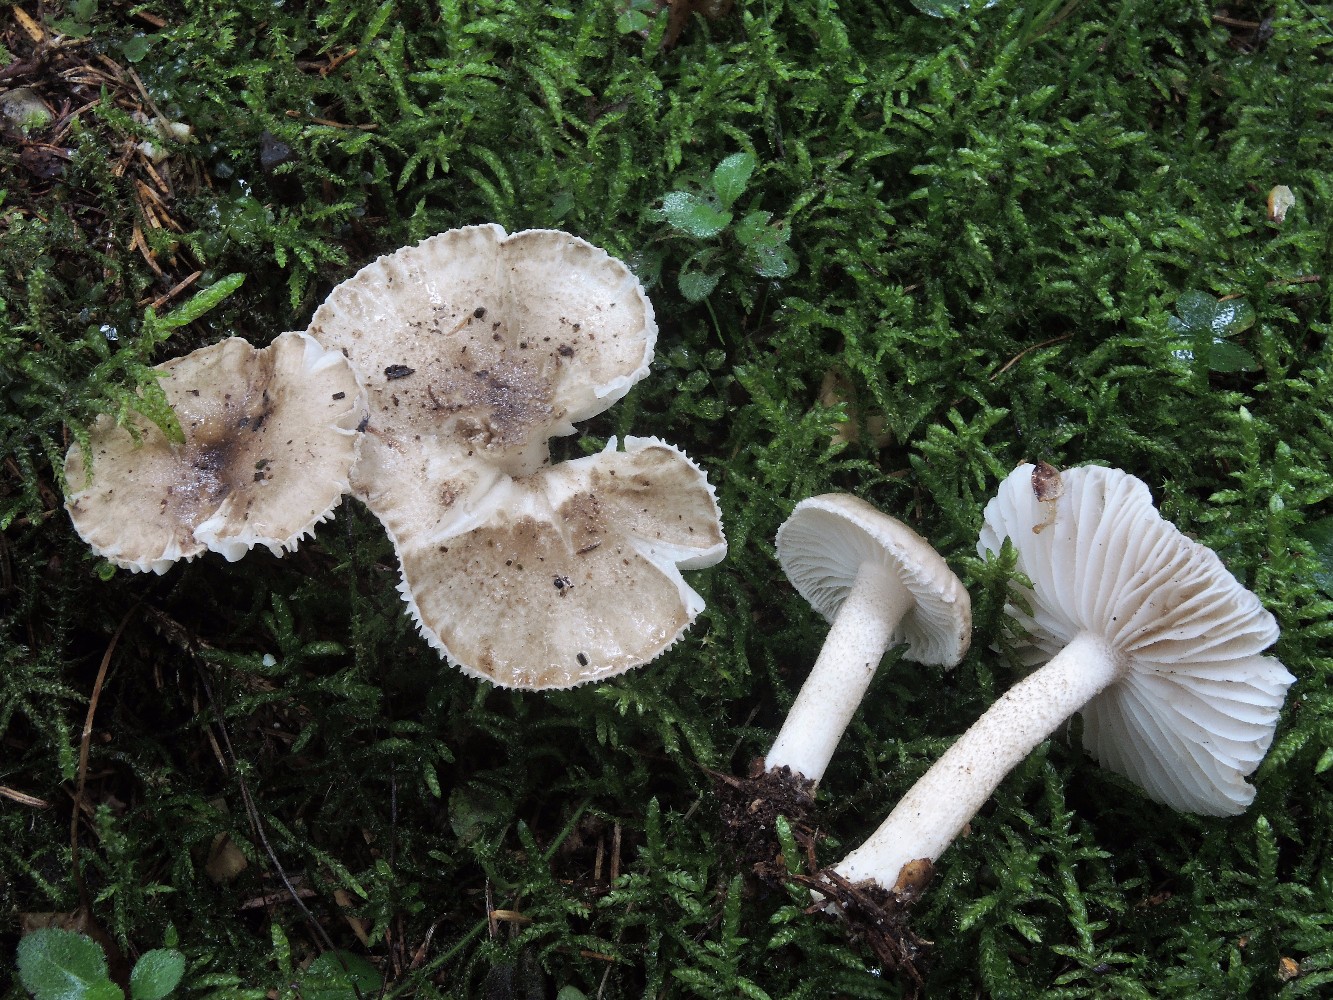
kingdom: Fungi
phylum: Basidiomycota
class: Agaricomycetes
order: Agaricales
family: Hygrophoraceae
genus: Hygrophorus
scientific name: Hygrophorus pustulatus
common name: mørkprikket sneglehat
